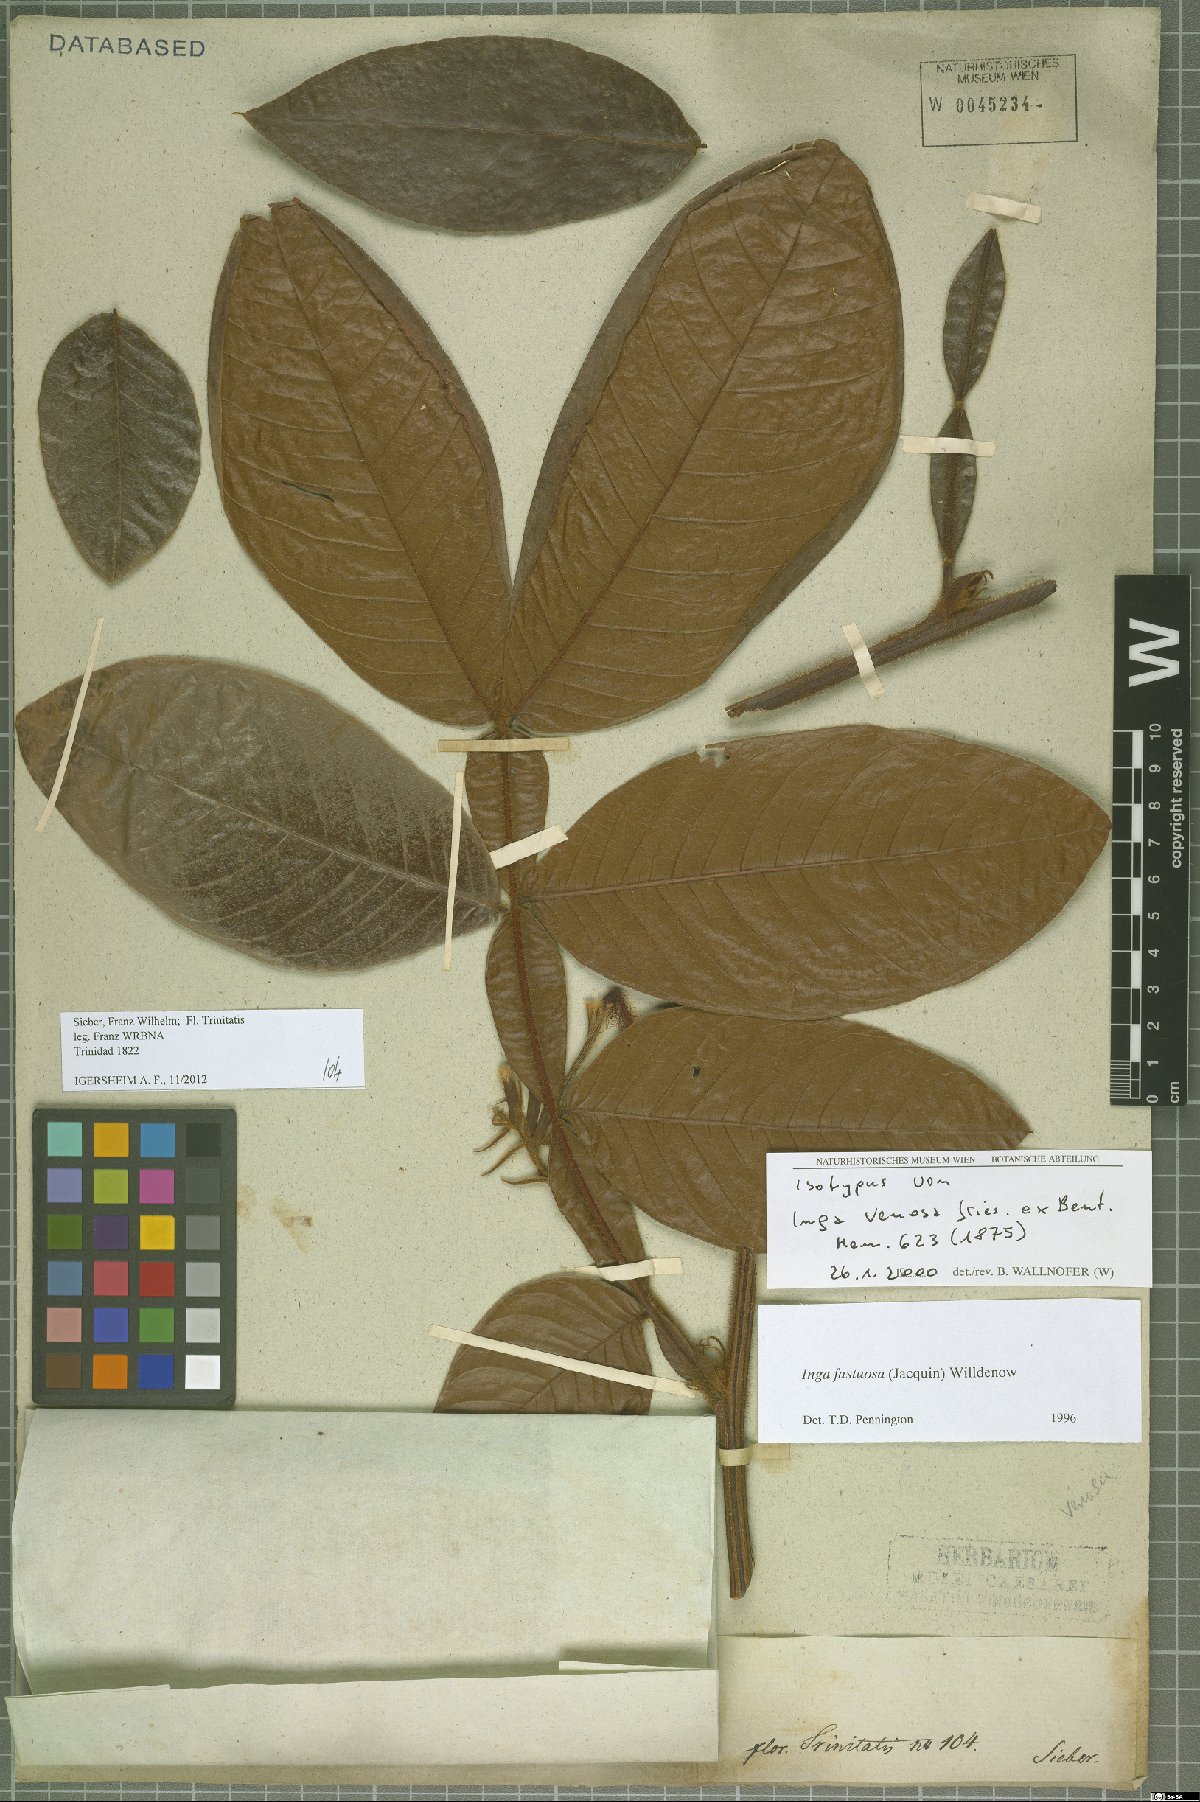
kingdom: Plantae
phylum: Tracheophyta
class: Magnoliopsida
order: Fabales
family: Fabaceae
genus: Inga
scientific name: Inga fastuosa
